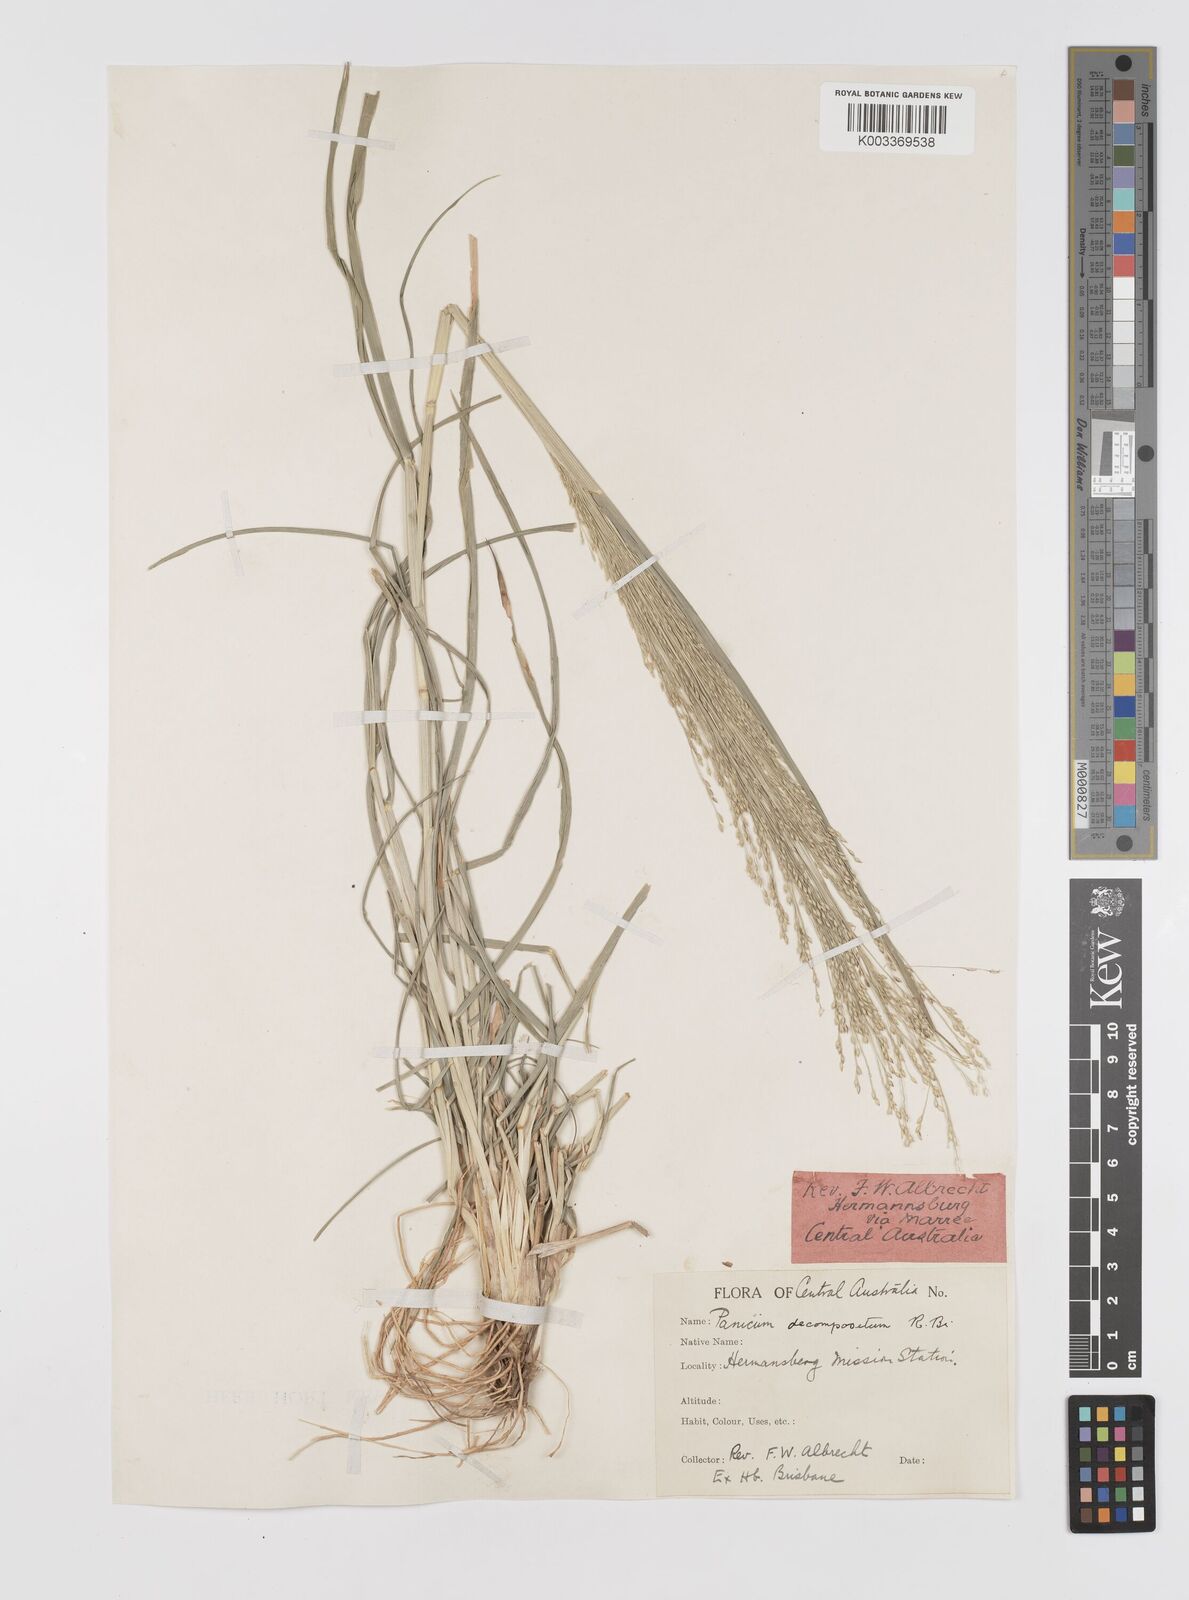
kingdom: Plantae
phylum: Tracheophyta
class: Liliopsida
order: Poales
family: Poaceae
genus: Panicum
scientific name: Panicum decompositum
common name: Australian millet
